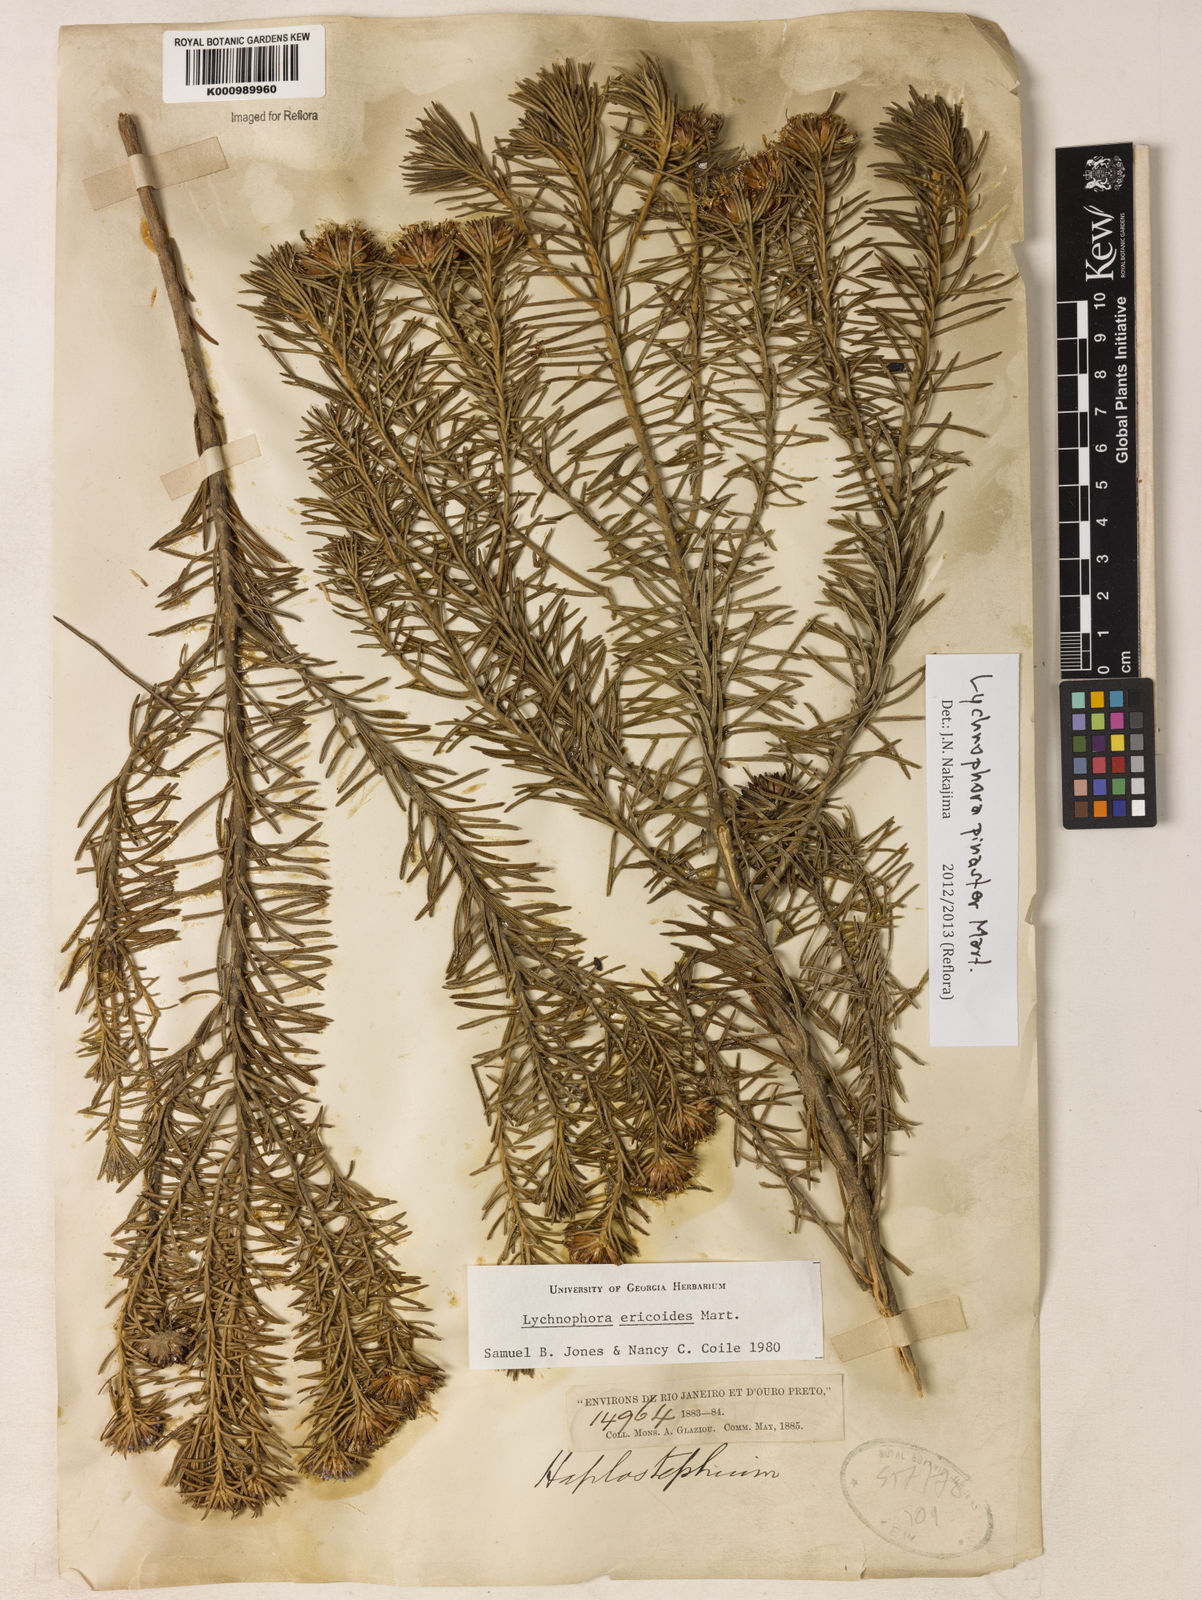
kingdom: Plantae
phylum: Tracheophyta
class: Magnoliopsida
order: Asterales
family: Asteraceae
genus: Lychnophora
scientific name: Lychnophora pinaster
